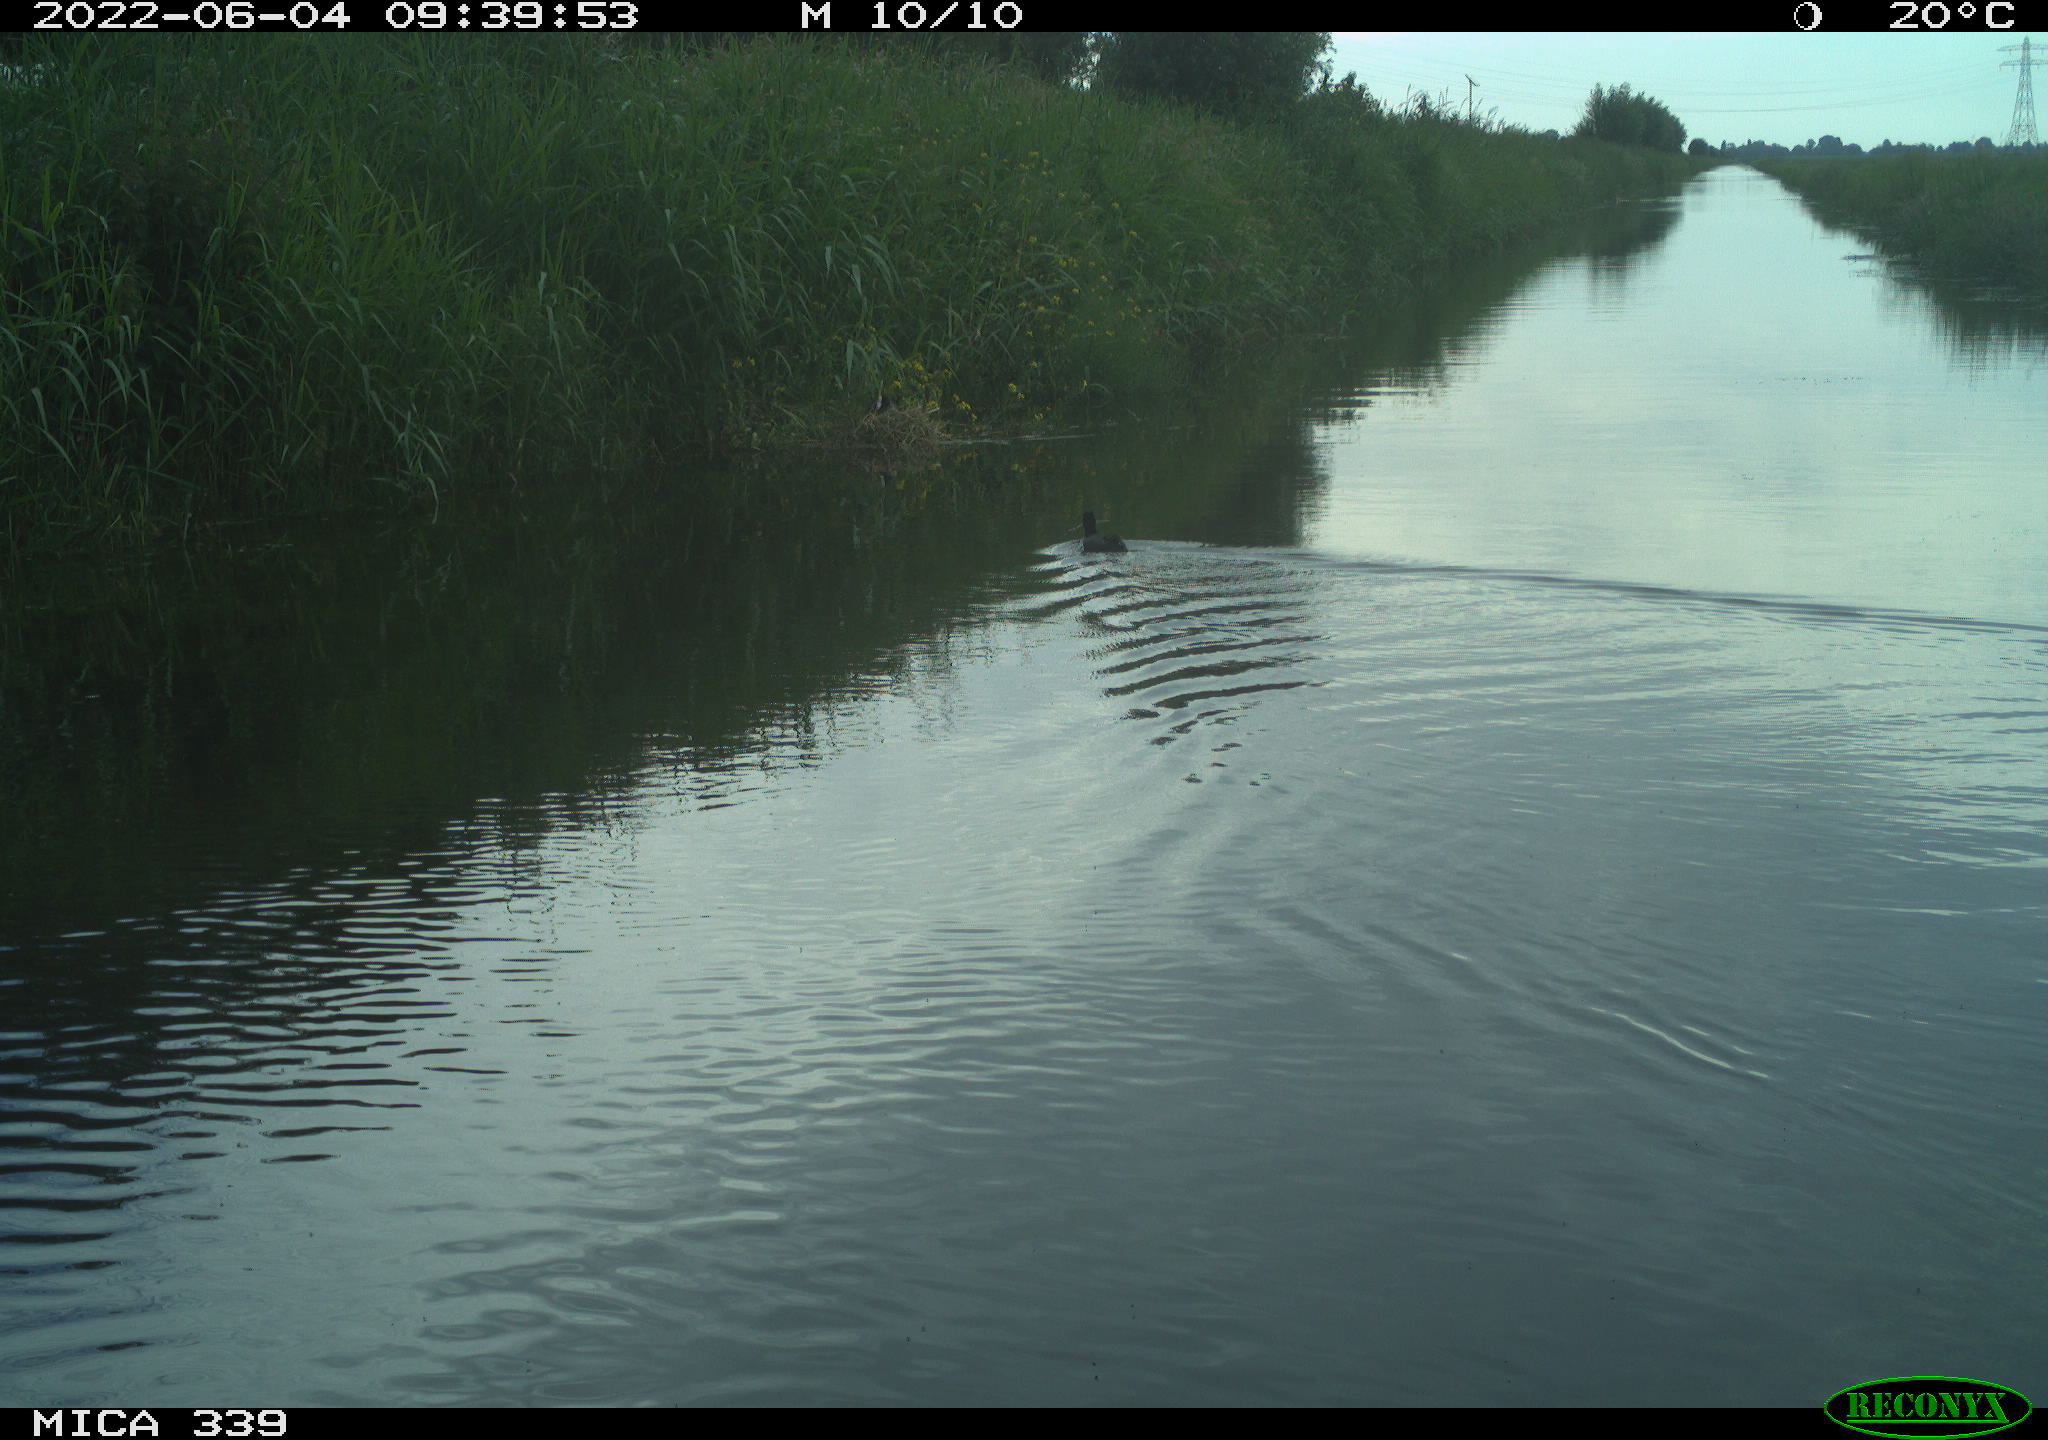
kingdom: Animalia
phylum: Chordata
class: Aves
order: Gruiformes
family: Rallidae
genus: Fulica
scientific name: Fulica atra
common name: Eurasian coot
